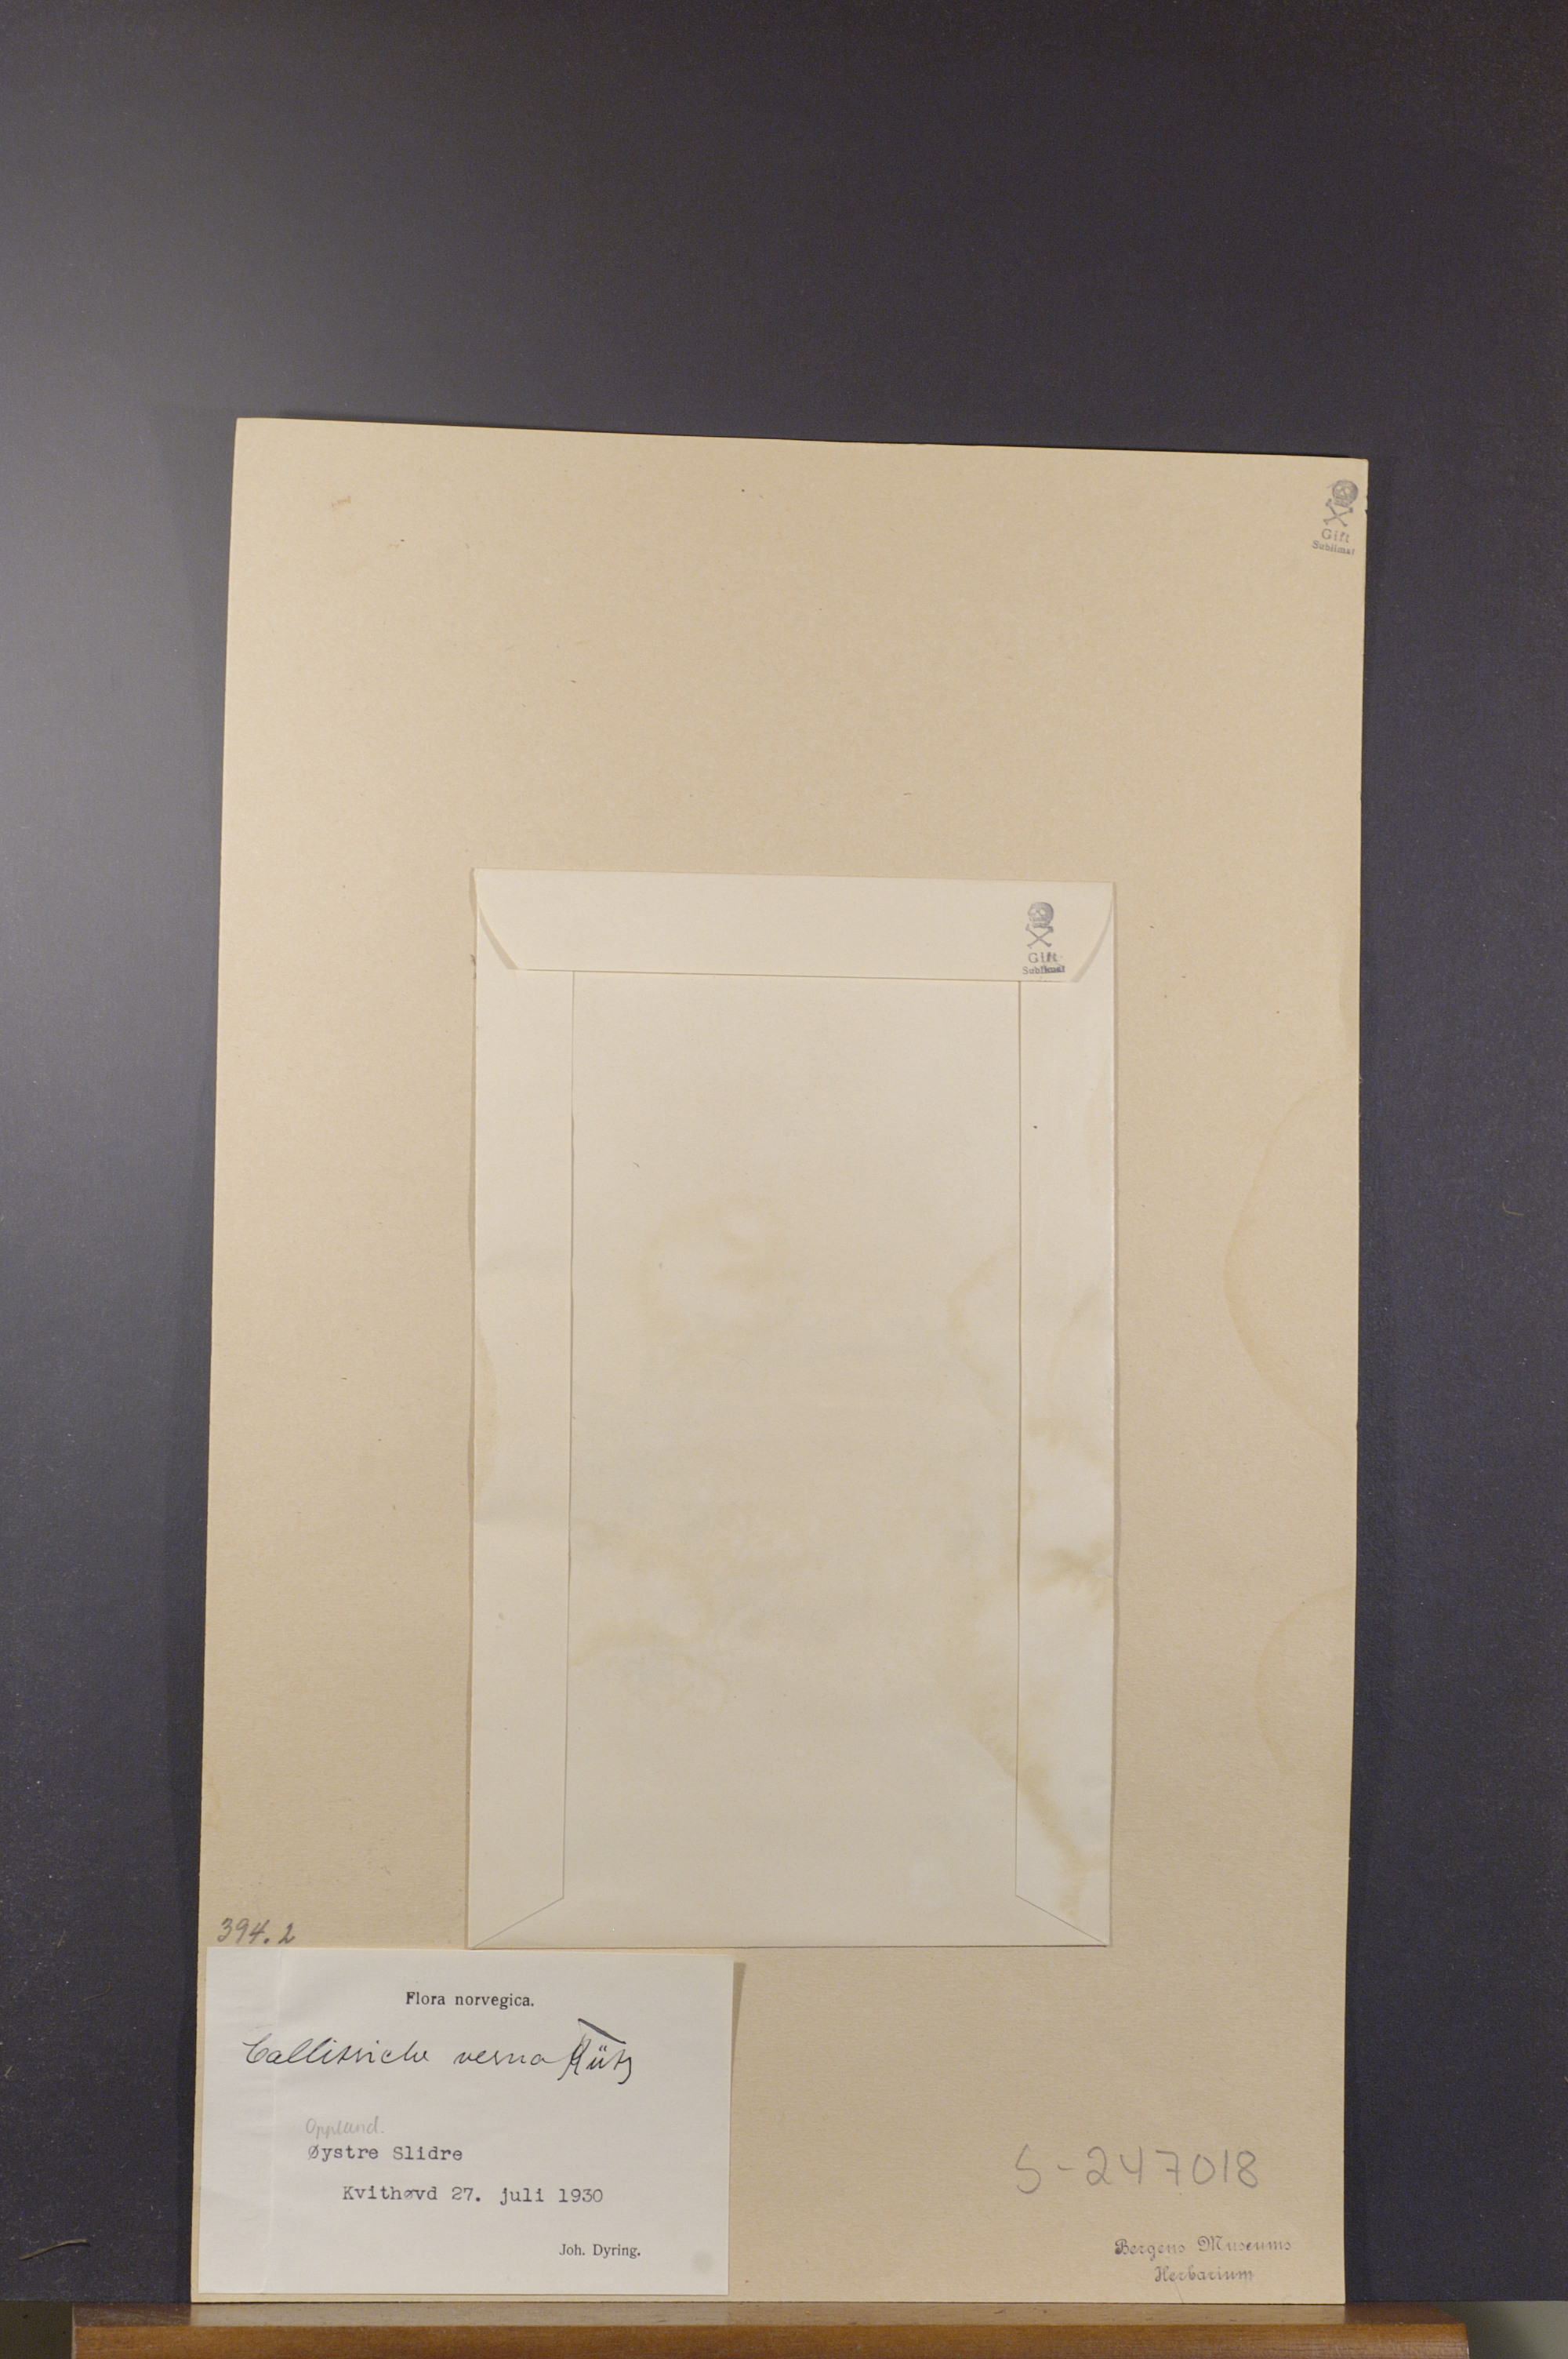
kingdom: Plantae
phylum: Tracheophyta
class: Magnoliopsida
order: Lamiales
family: Plantaginaceae
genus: Callitriche
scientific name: Callitriche palustris
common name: Spring water-starwort
